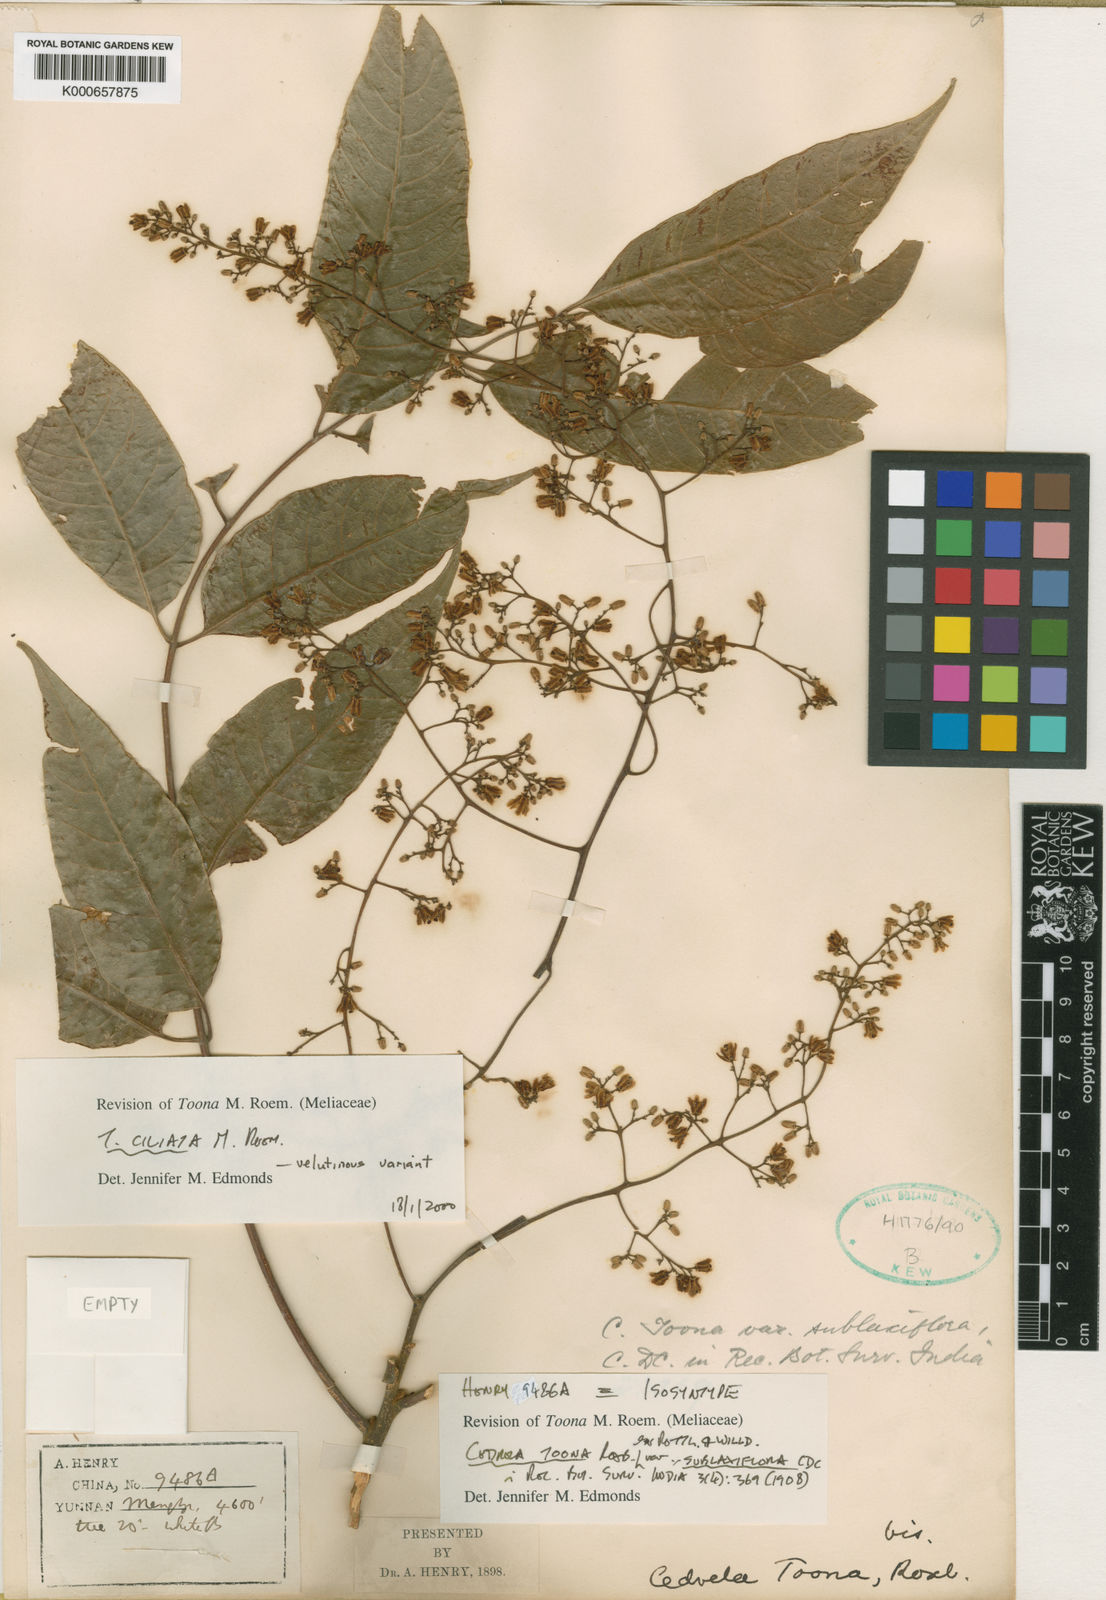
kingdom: Plantae
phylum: Tracheophyta
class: Magnoliopsida
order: Sapindales
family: Meliaceae
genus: Toona
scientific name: Toona ciliata
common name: Australian redcedar
